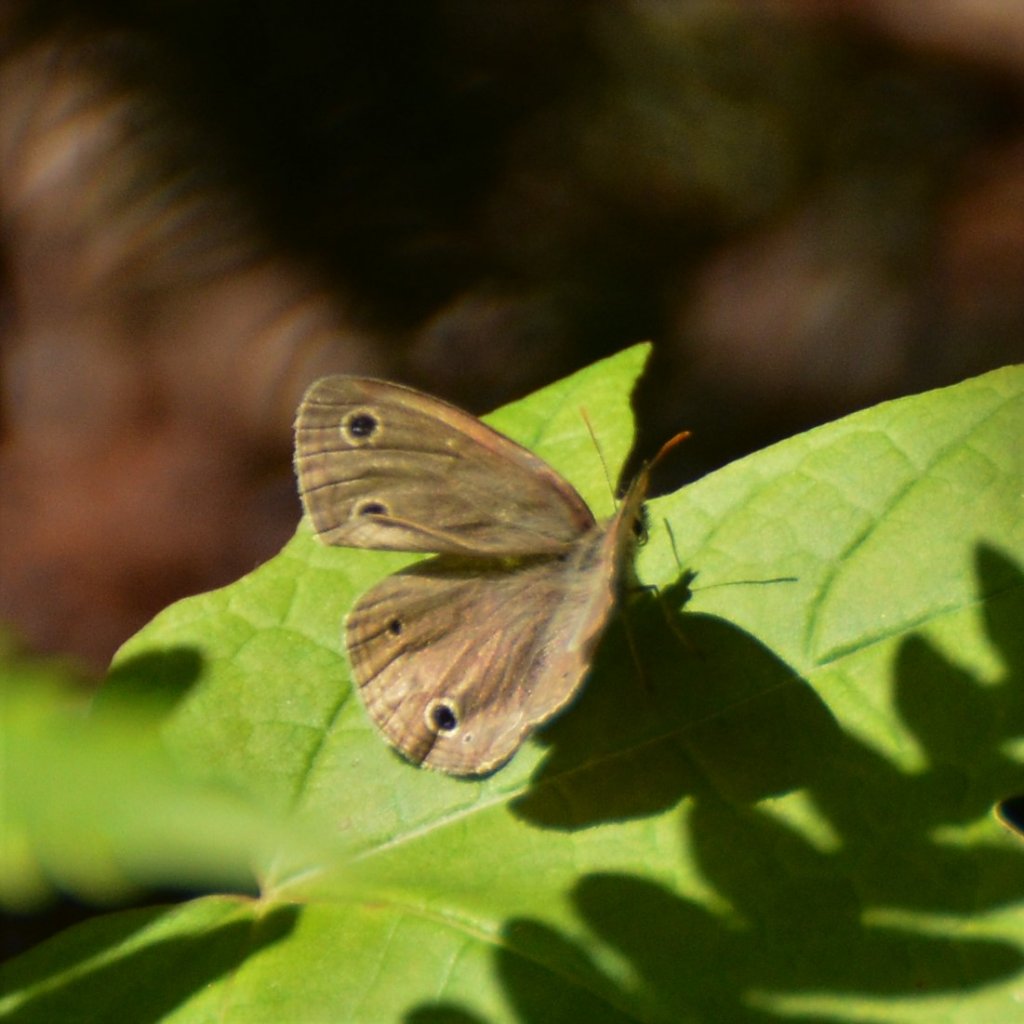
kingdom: Animalia
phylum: Arthropoda
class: Insecta
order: Lepidoptera
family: Nymphalidae
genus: Euptychia
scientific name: Euptychia cymela
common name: Little Wood Satyr
